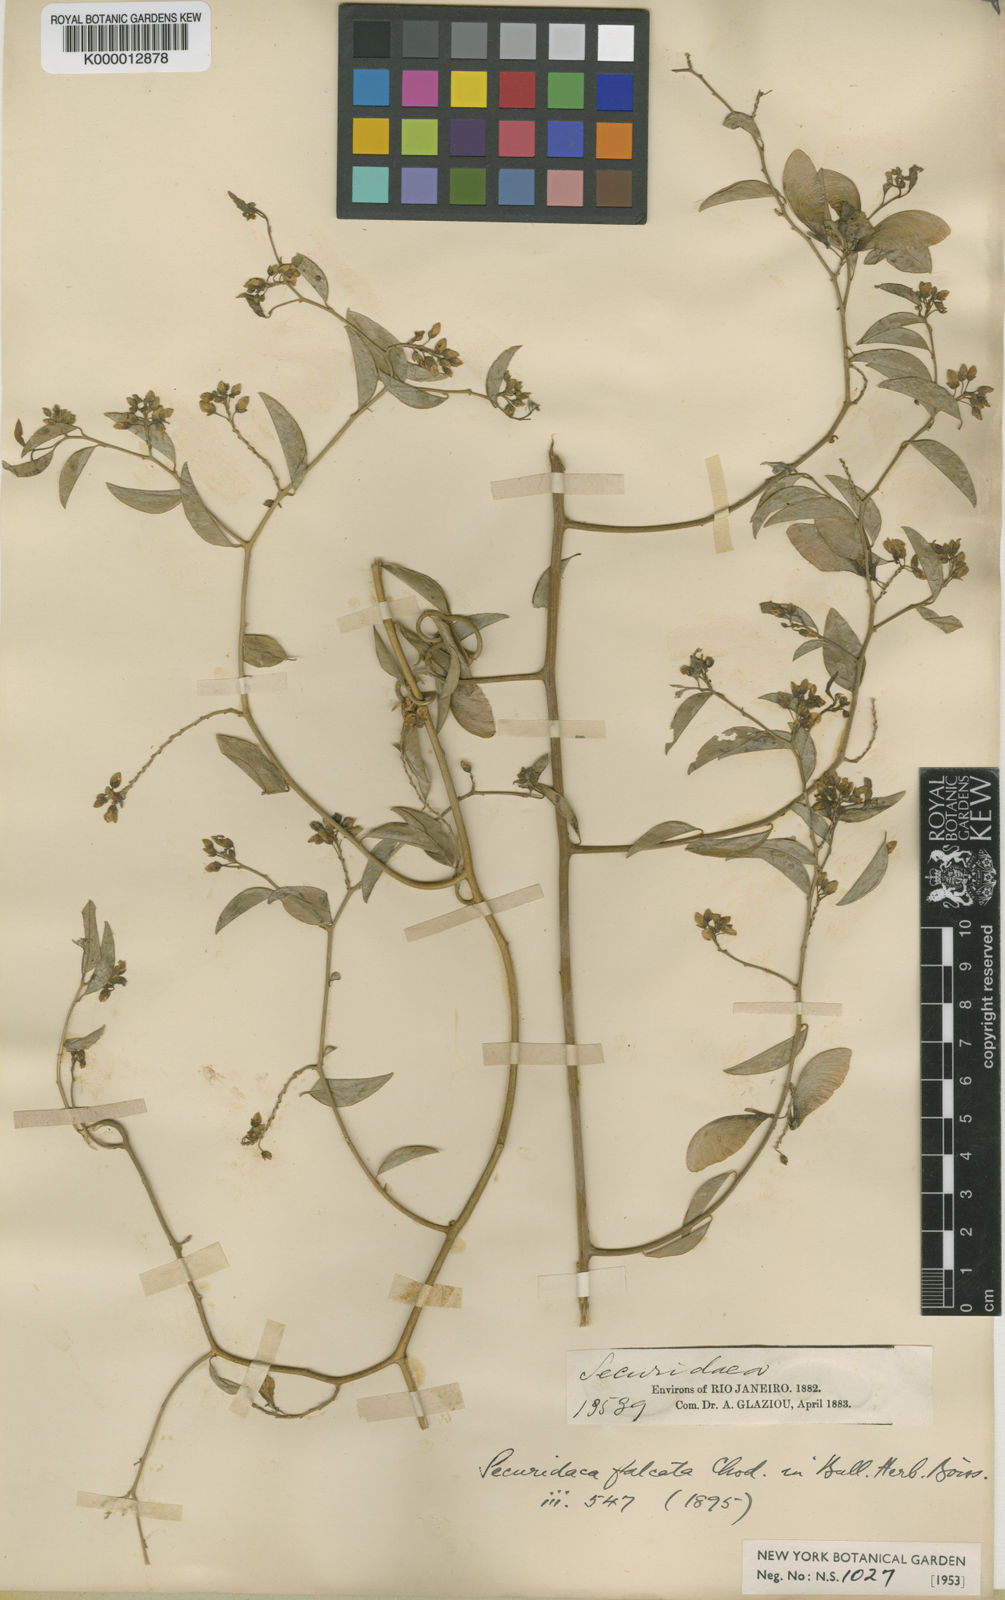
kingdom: Plantae
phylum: Tracheophyta
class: Magnoliopsida
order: Fabales
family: Polygalaceae
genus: Securidaca
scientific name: Securidaca falcata
